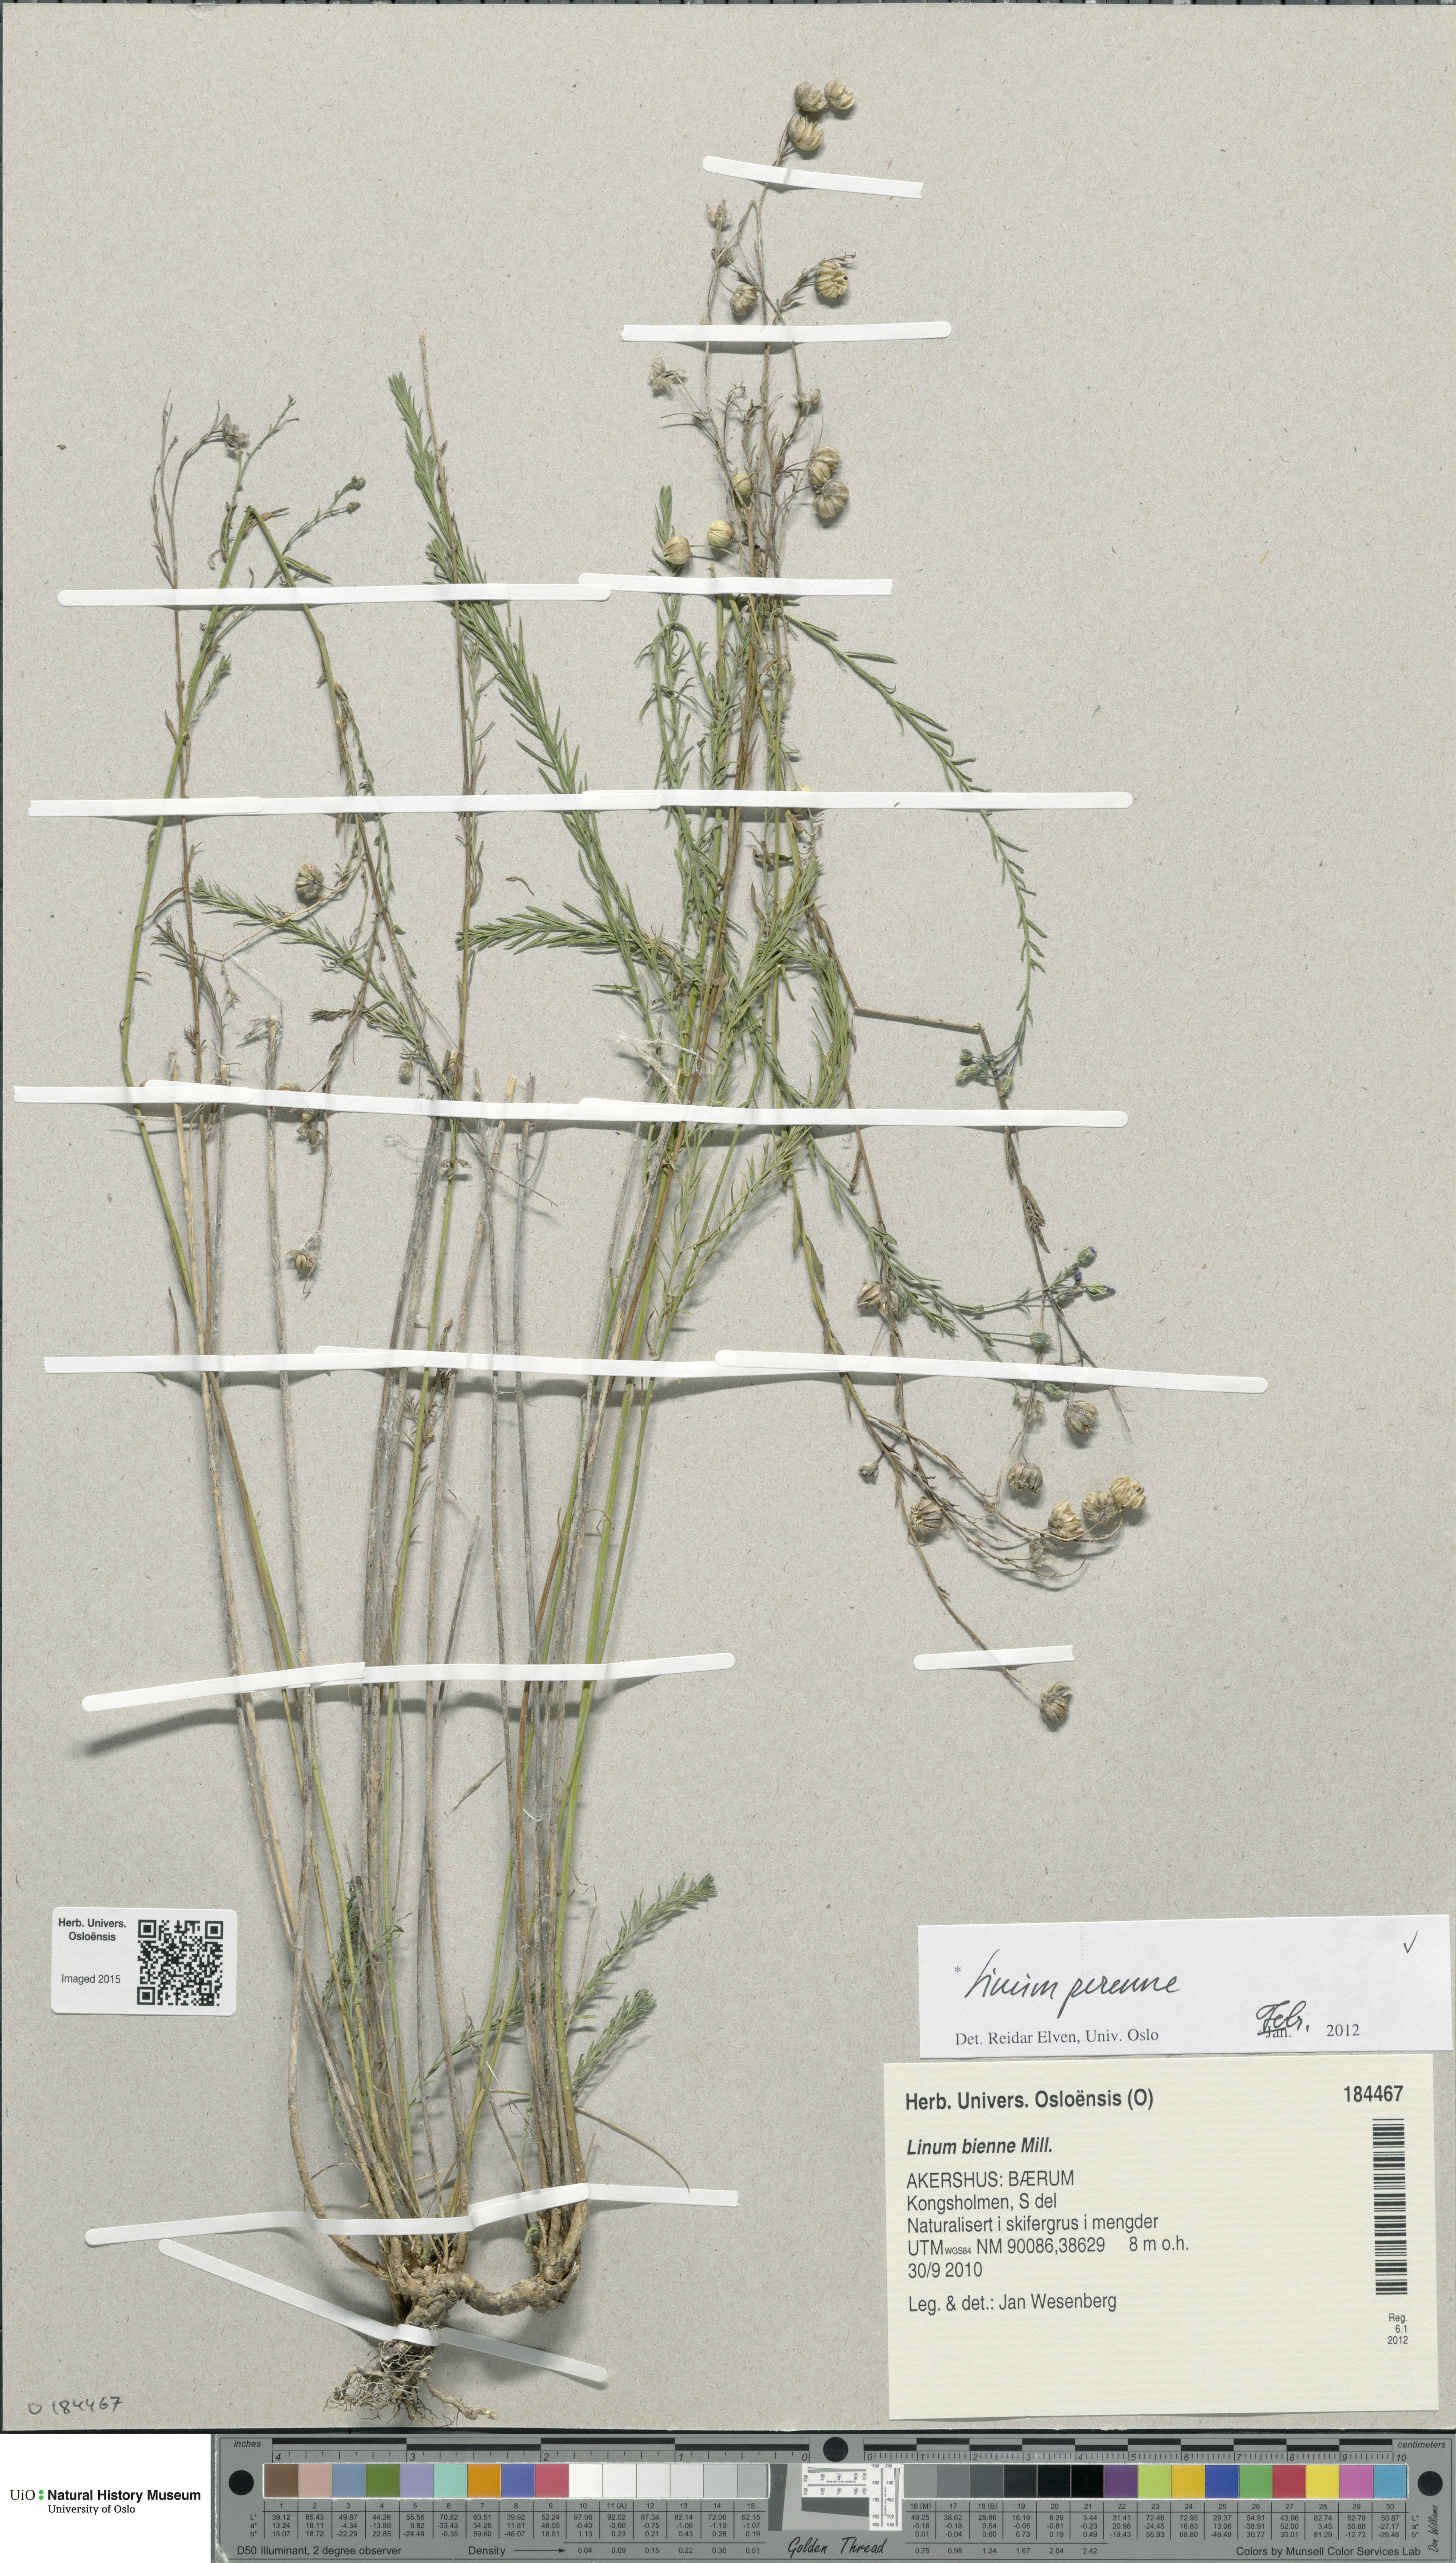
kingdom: Plantae
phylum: Tracheophyta
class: Magnoliopsida
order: Malpighiales
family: Linaceae
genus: Linum
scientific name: Linum perenne
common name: Blue flax
